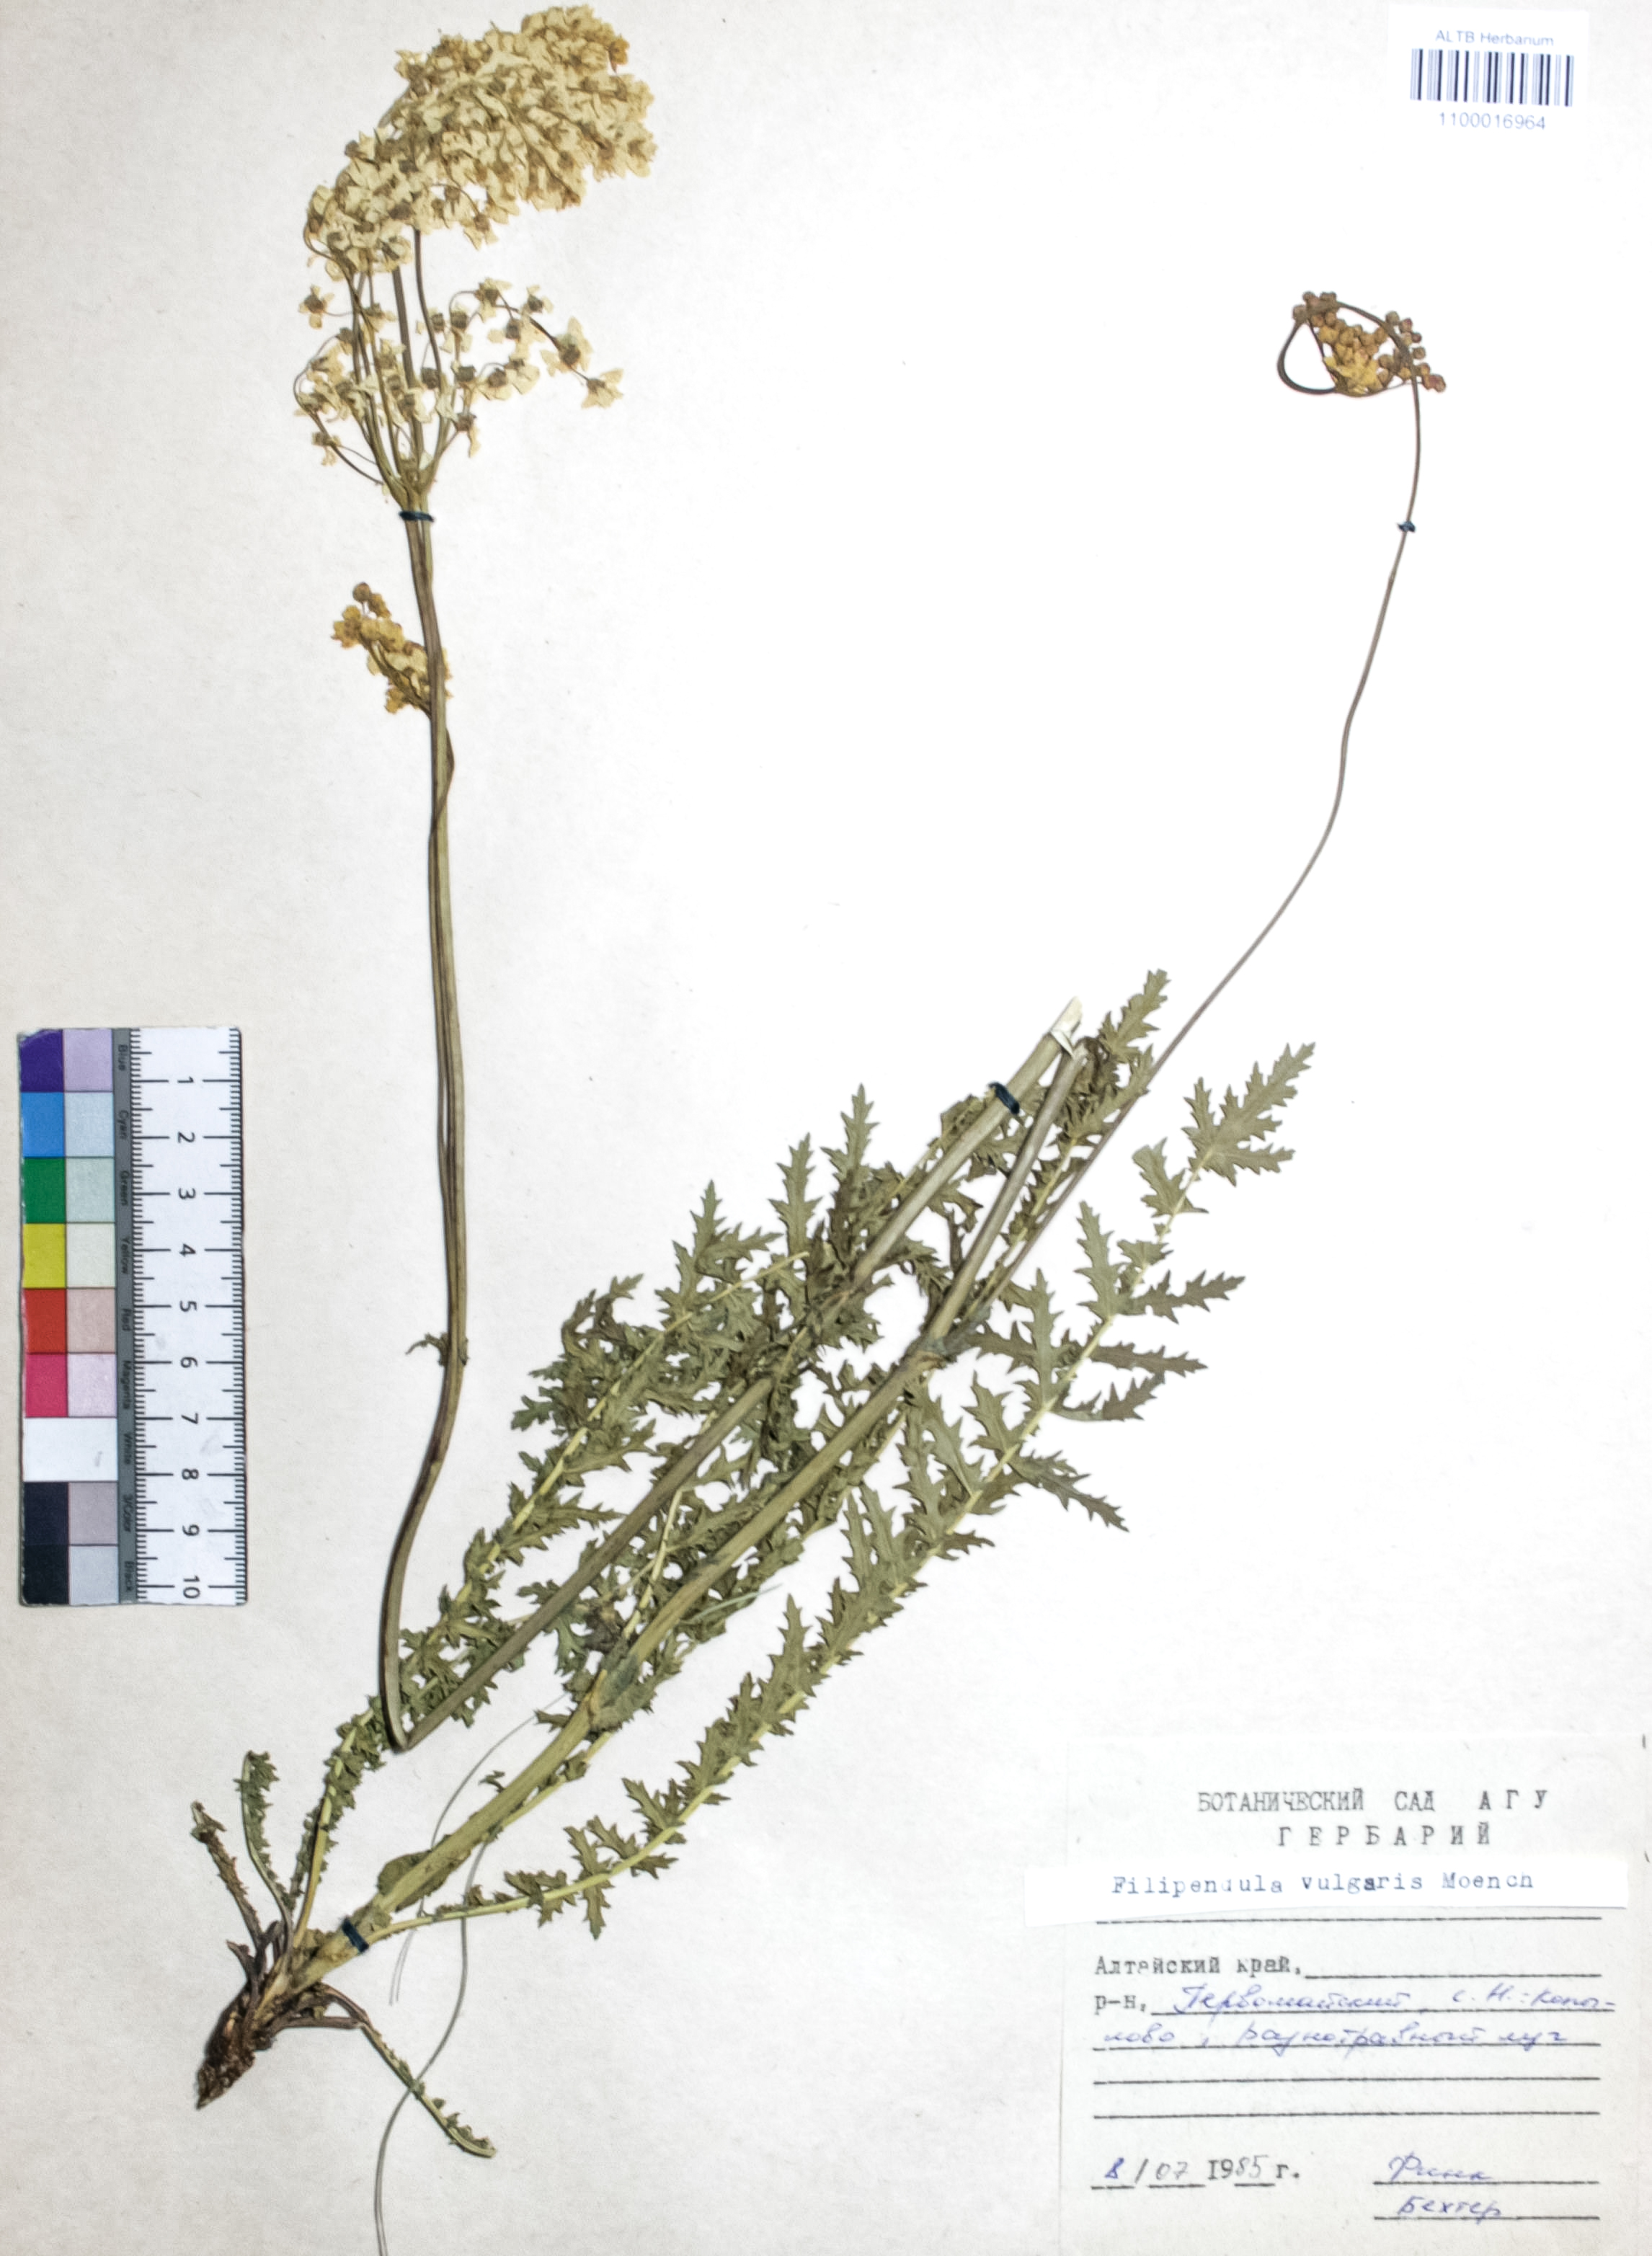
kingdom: Plantae
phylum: Tracheophyta
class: Magnoliopsida
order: Rosales
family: Rosaceae
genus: Filipendula
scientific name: Filipendula vulgaris
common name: Dropwort
